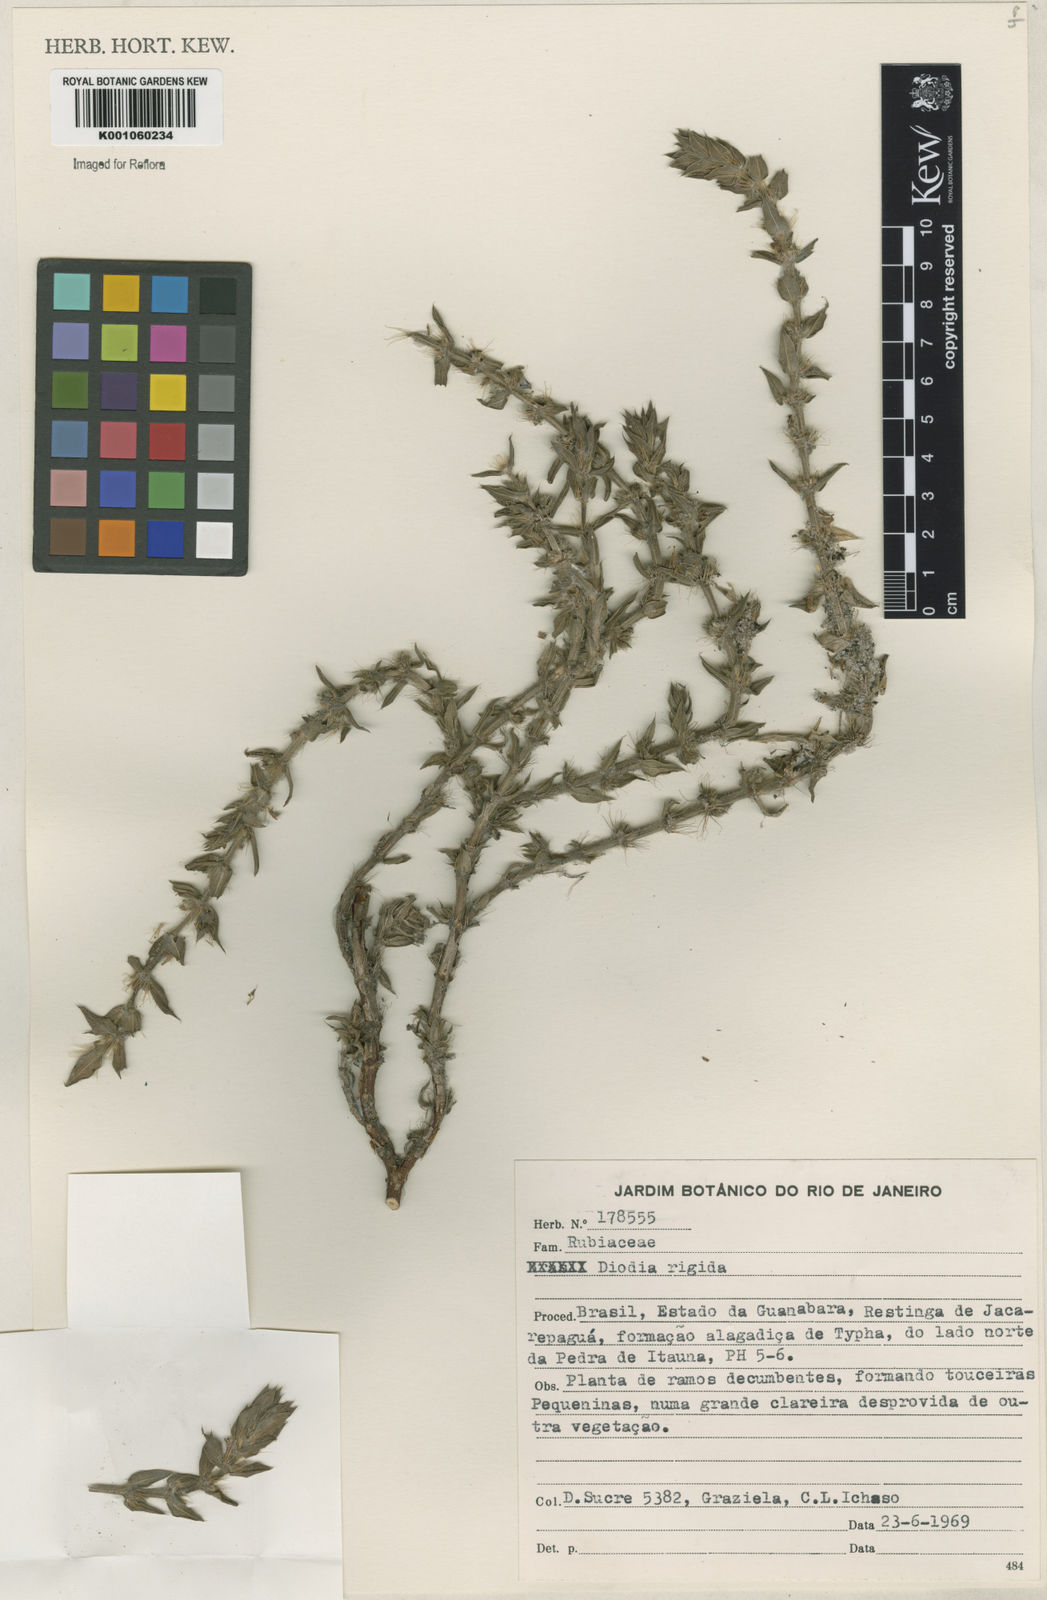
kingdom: Plantae
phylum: Tracheophyta
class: Magnoliopsida
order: Gentianales
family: Rubiaceae
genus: Hexasepalum
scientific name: Hexasepalum apiculatum
